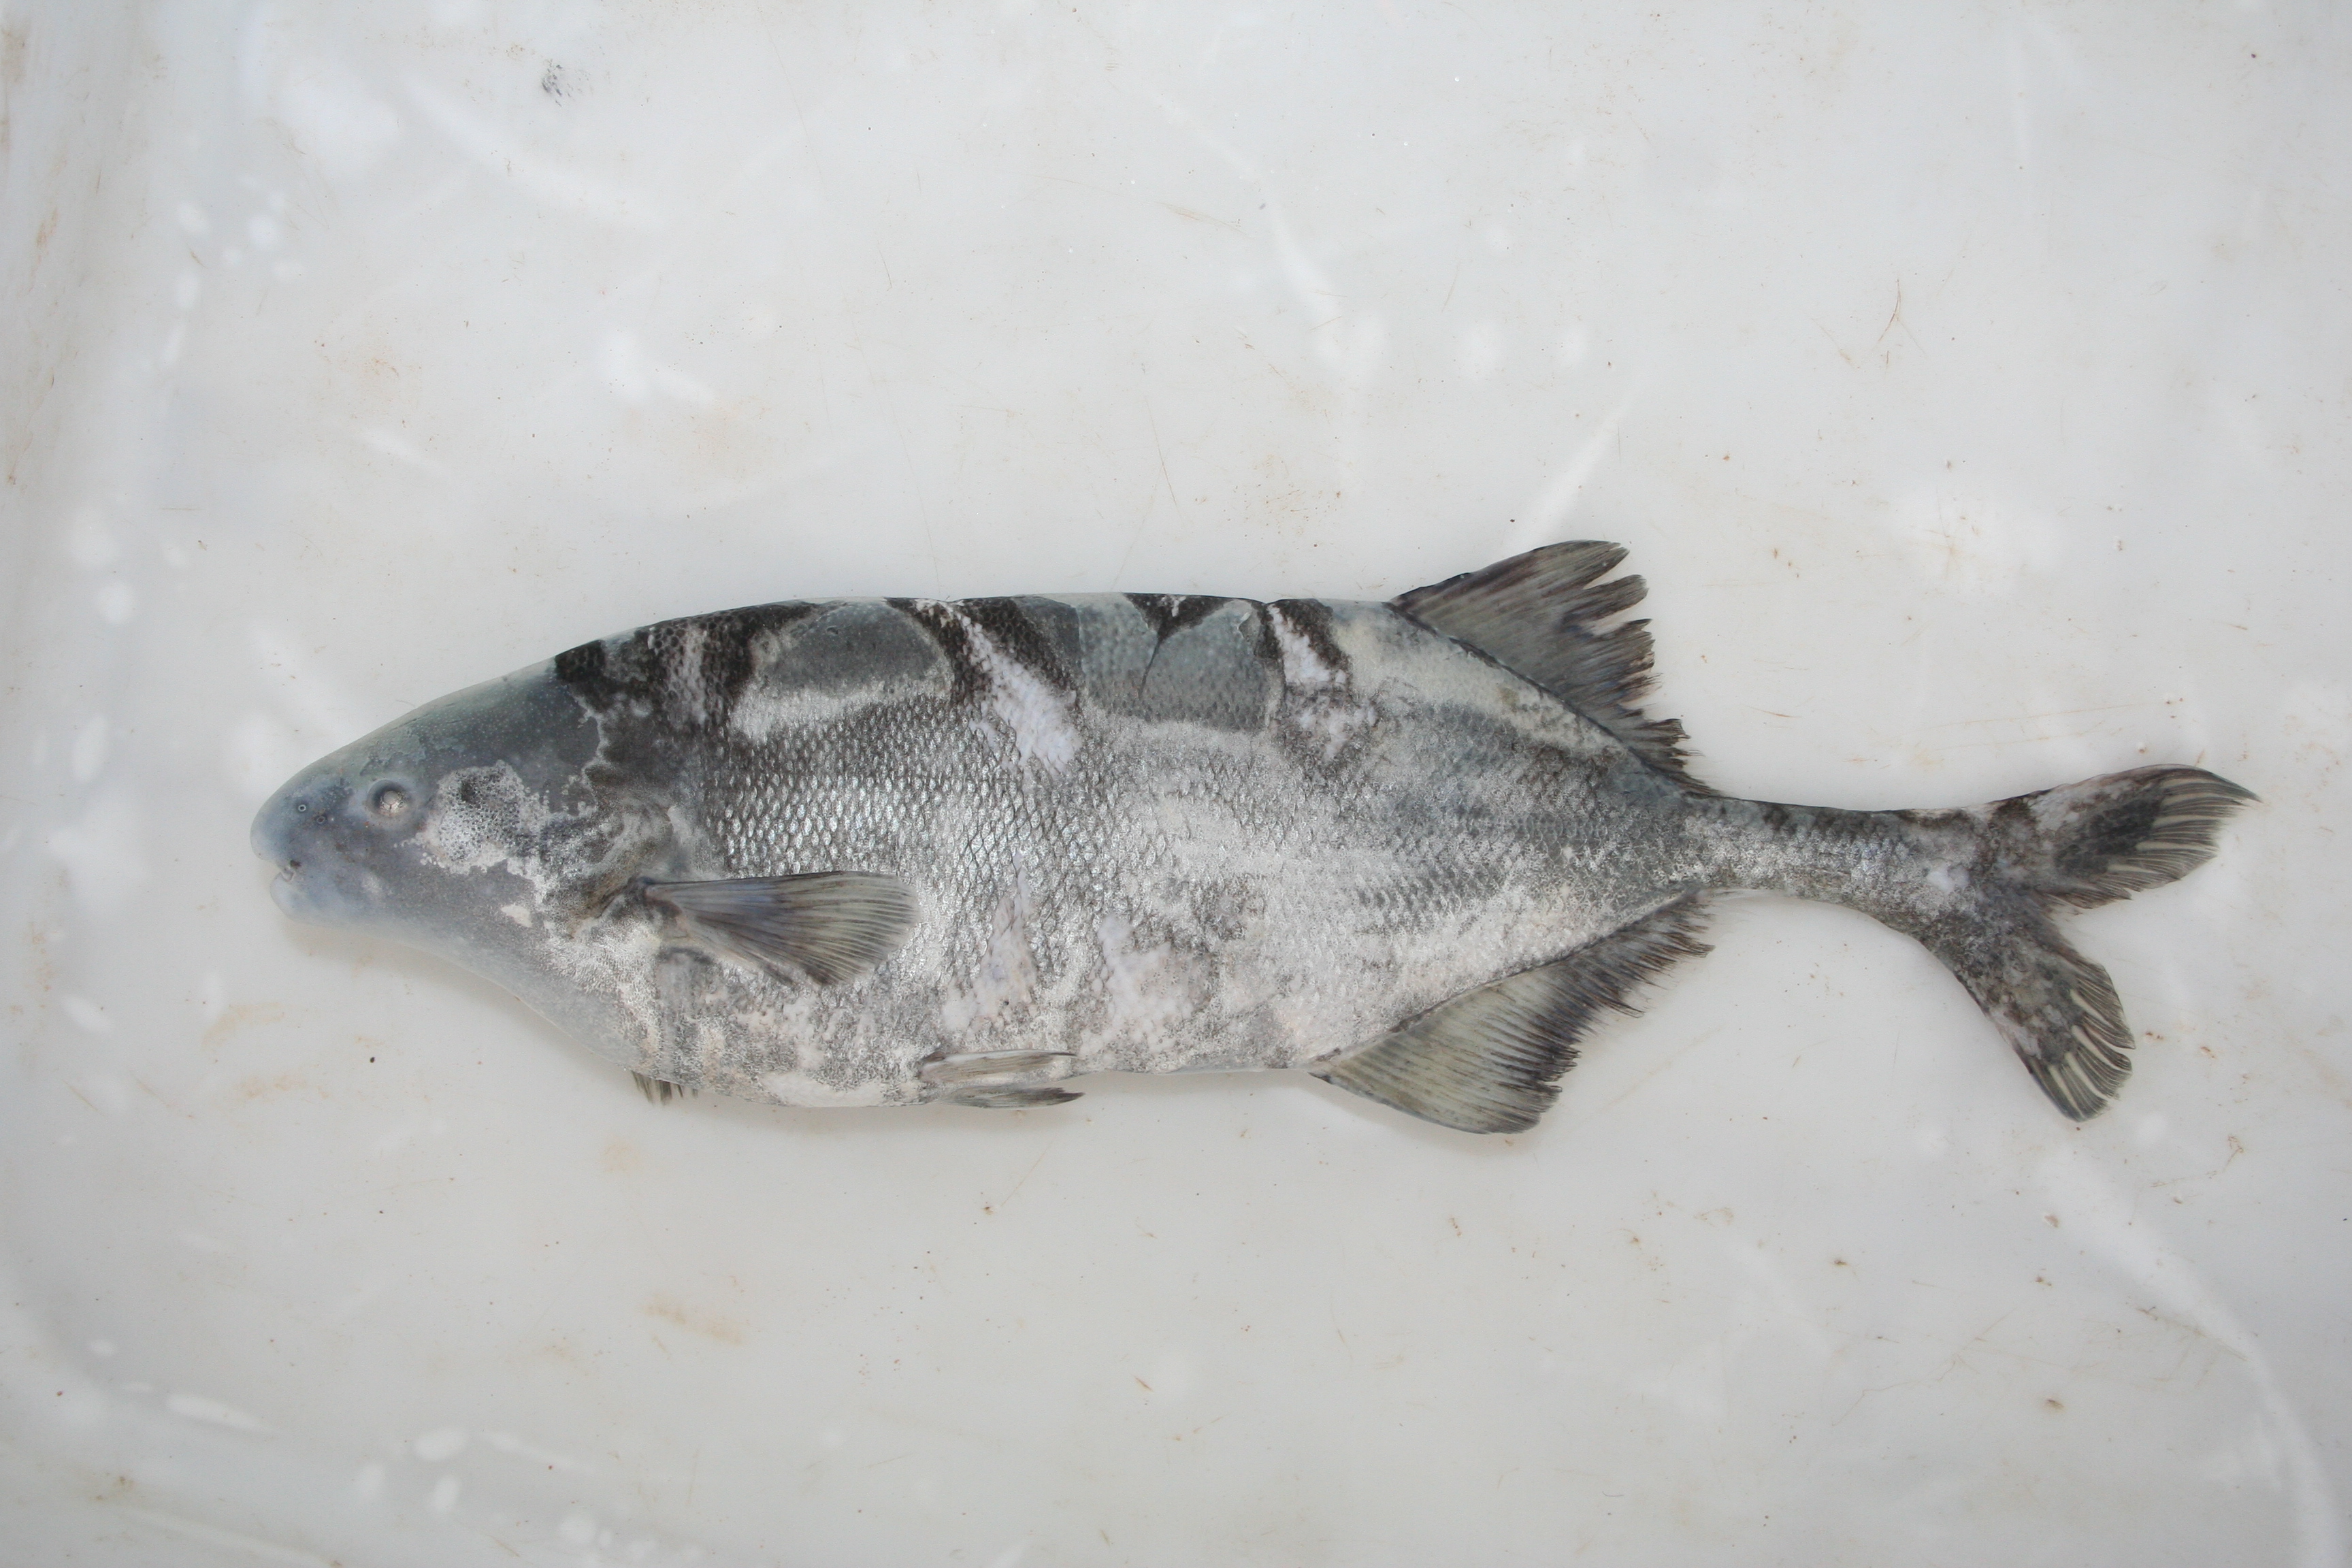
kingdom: Animalia
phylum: Chordata
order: Osteoglossiformes
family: Mormyridae
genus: Mormyrus
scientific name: Mormyrus
